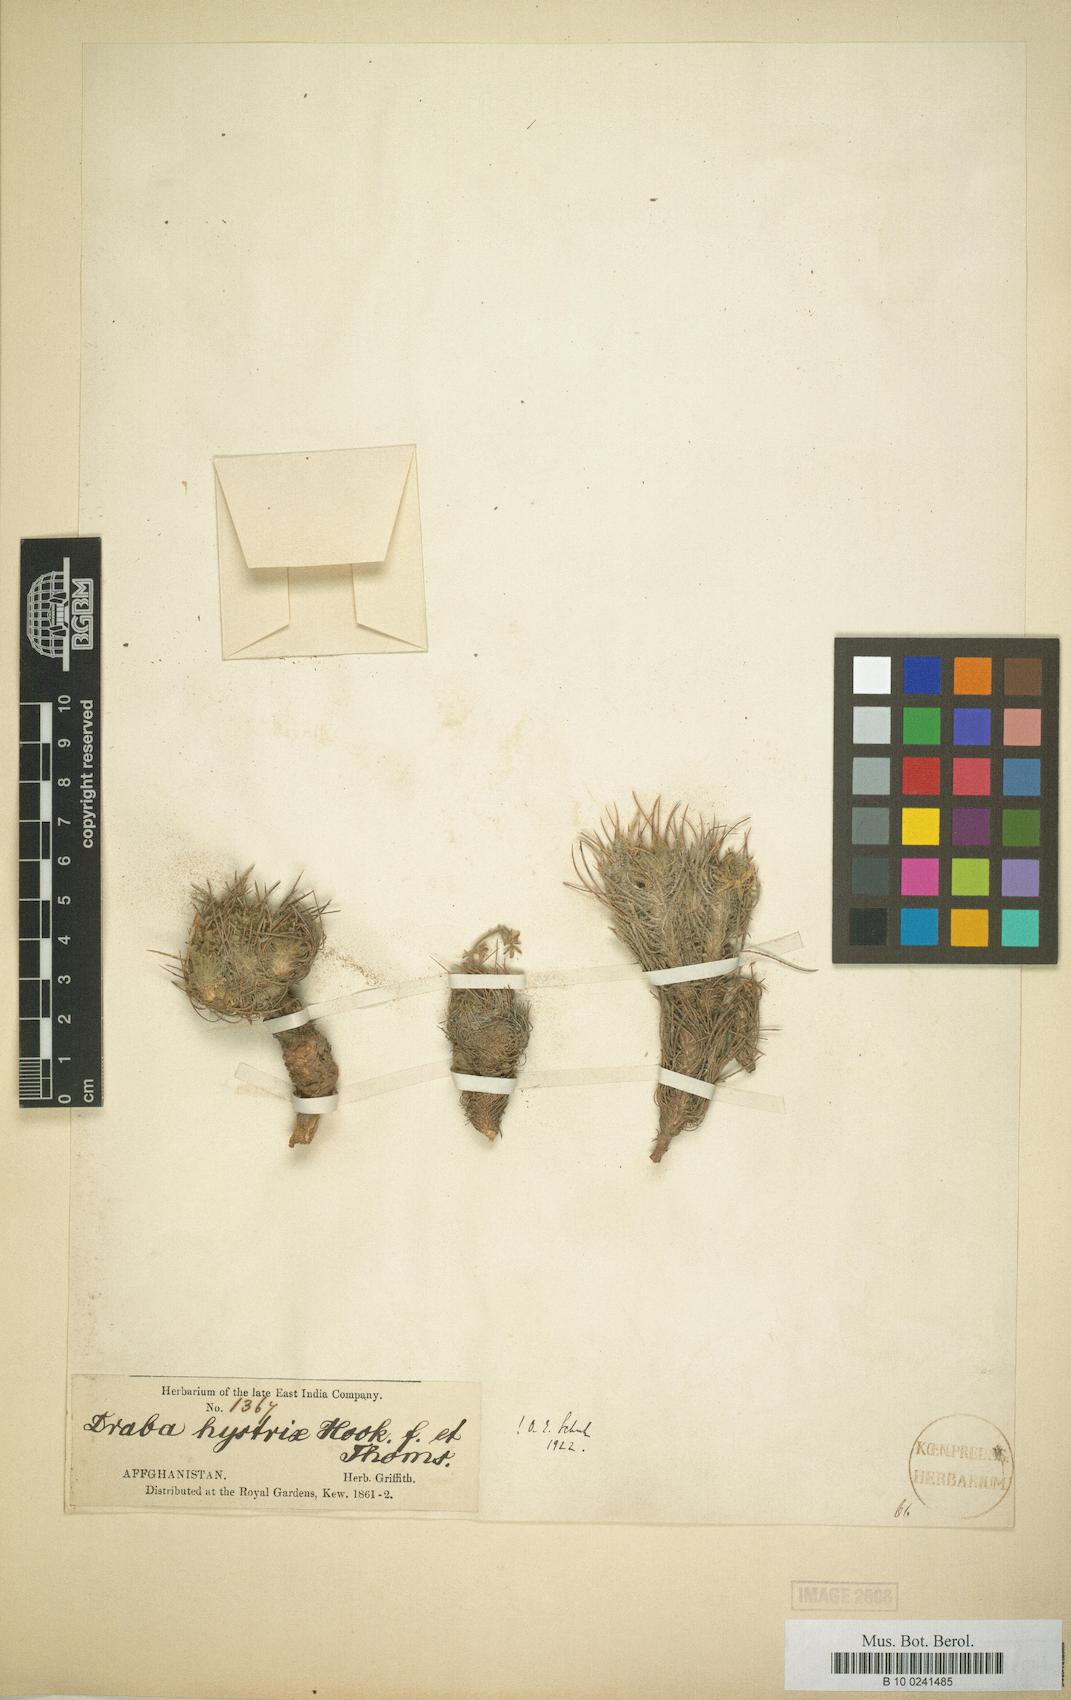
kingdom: Plantae
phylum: Tracheophyta
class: Magnoliopsida
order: Brassicales
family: Brassicaceae
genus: Pseudodraba
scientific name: Pseudodraba hystrix
